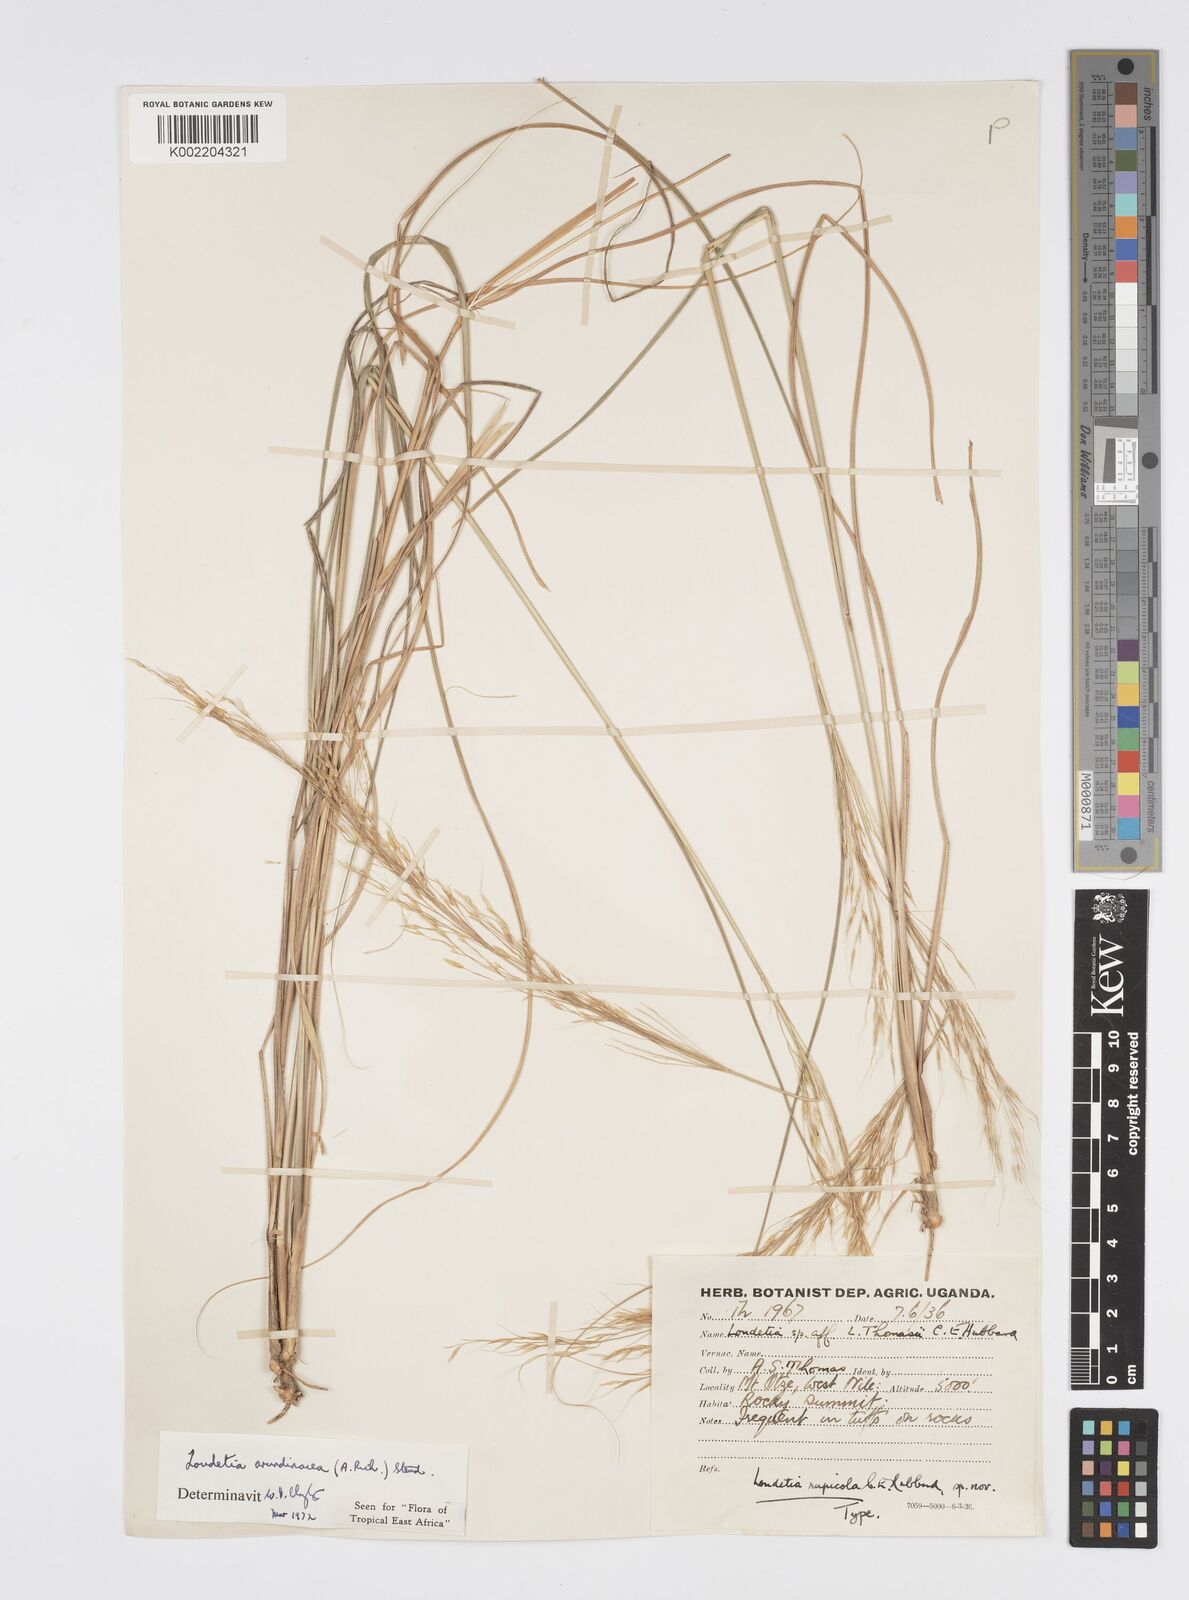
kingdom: Plantae
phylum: Tracheophyta
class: Liliopsida
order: Poales
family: Poaceae
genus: Loudetia
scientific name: Loudetia arundinacea
